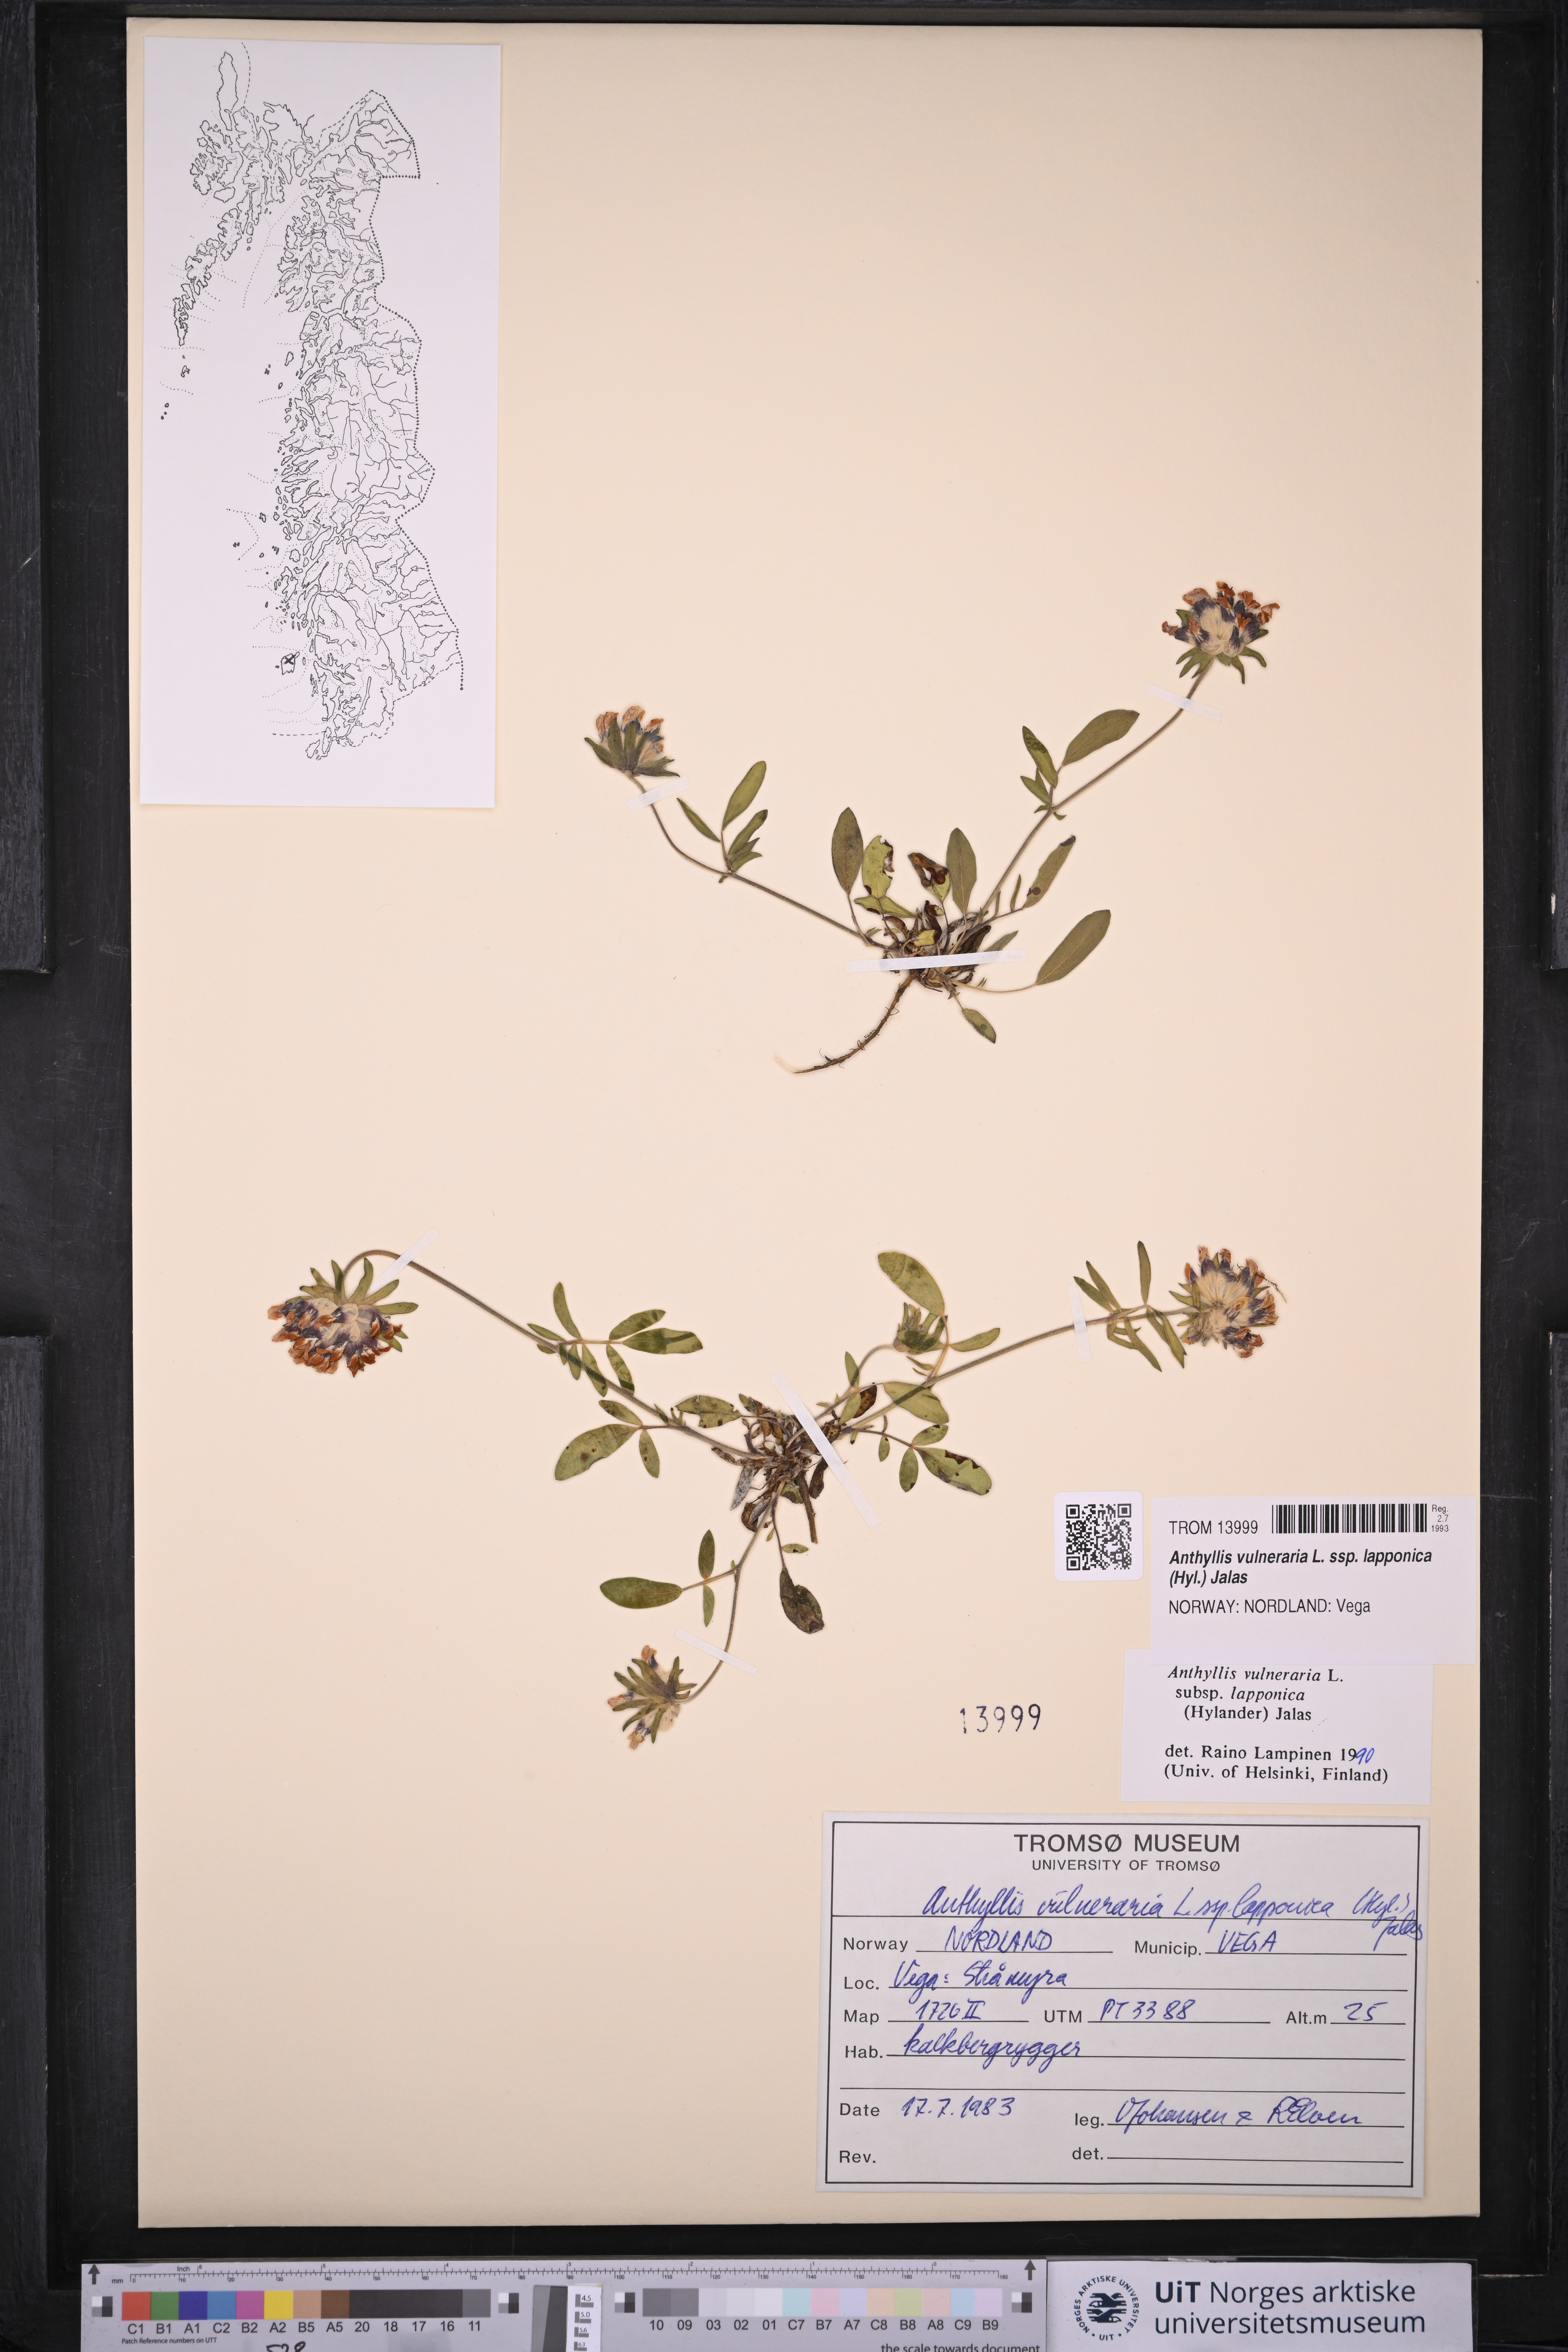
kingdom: Plantae
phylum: Tracheophyta
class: Magnoliopsida
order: Fabales
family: Fabaceae
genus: Anthyllis
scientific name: Anthyllis vulneraria
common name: Kidney vetch
